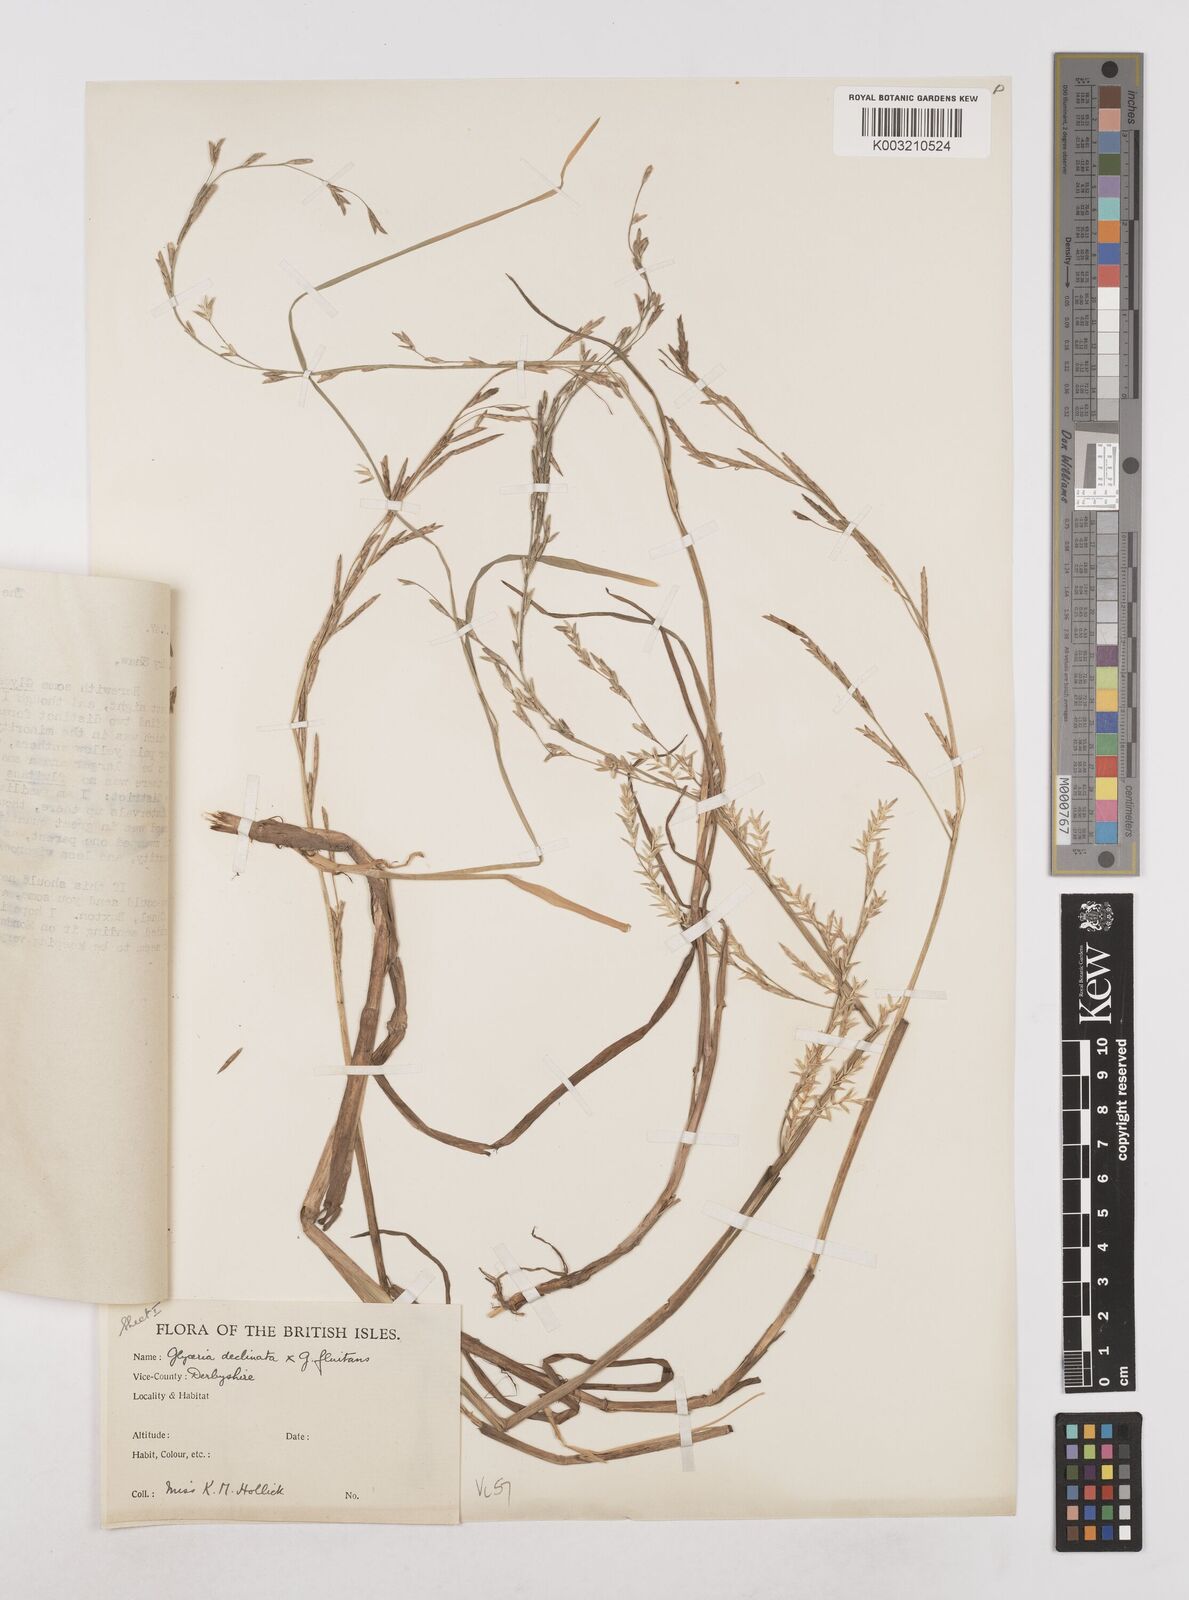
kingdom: Plantae
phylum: Tracheophyta
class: Liliopsida
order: Poales
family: Poaceae
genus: Glyceria
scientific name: Glyceria declinata
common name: Small sweet-grass
